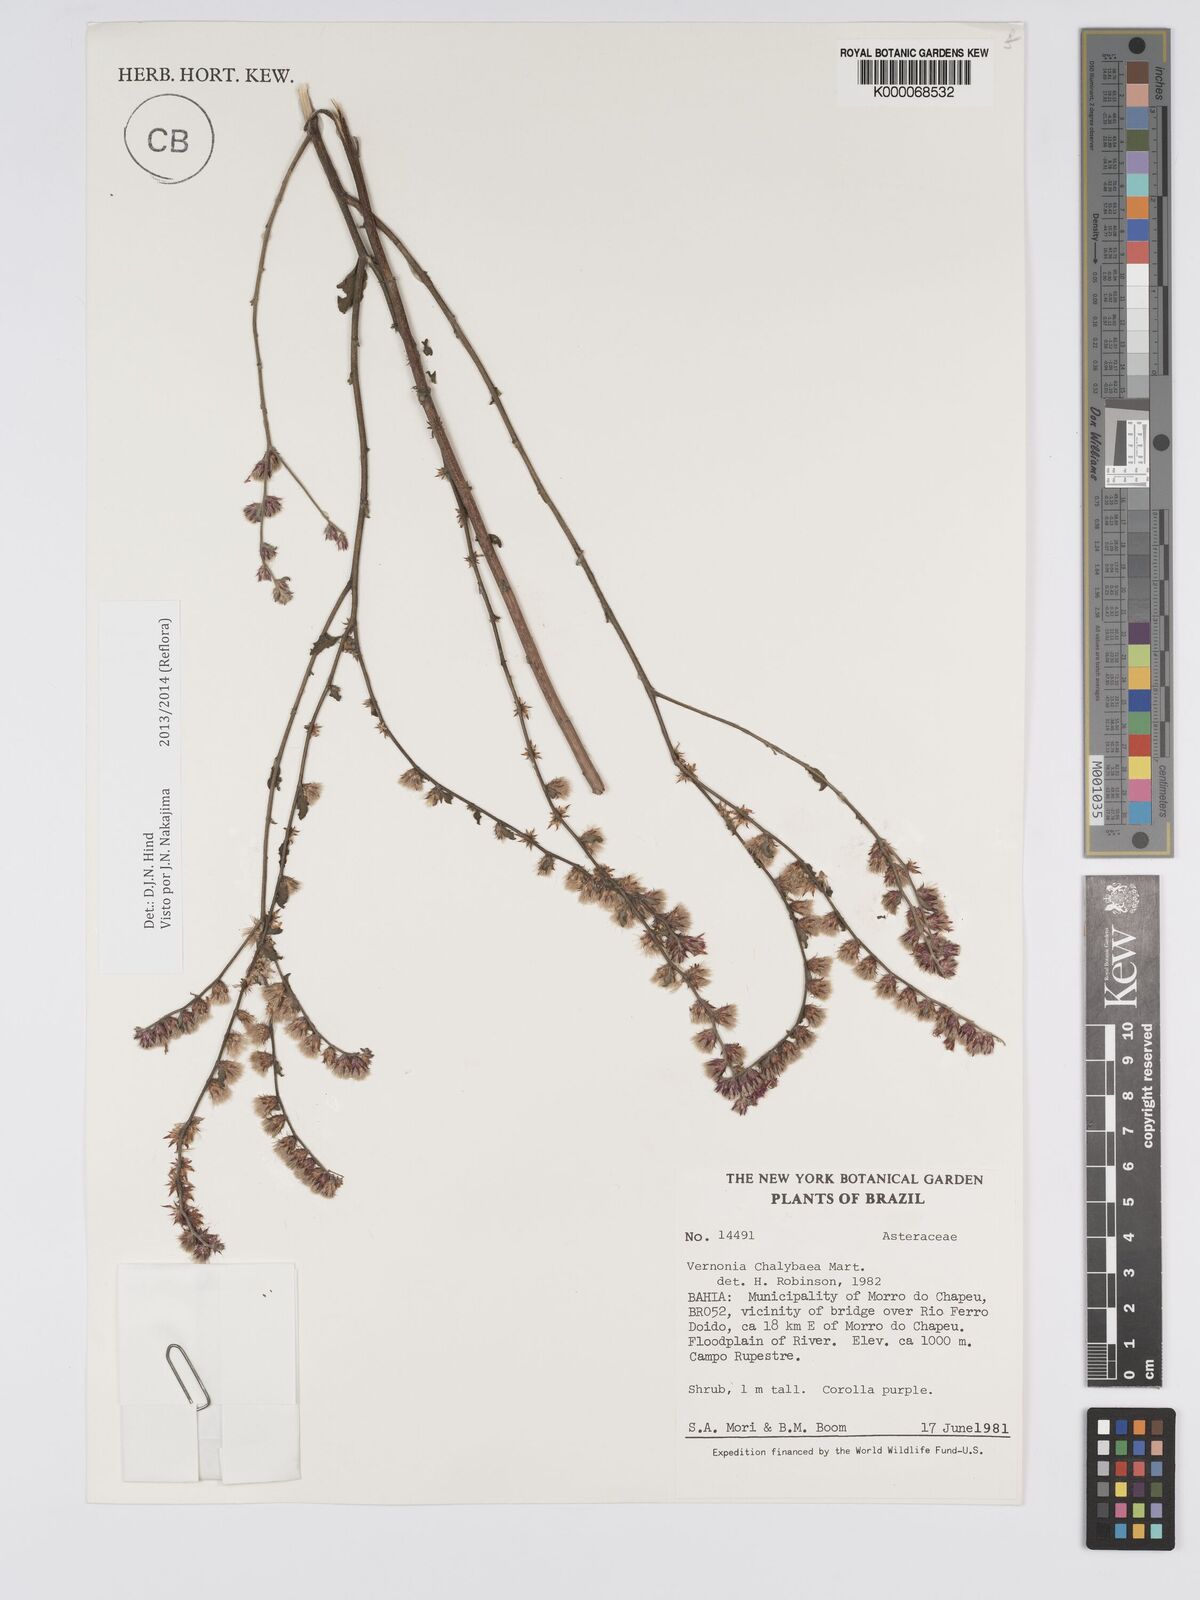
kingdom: Plantae
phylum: Tracheophyta
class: Magnoliopsida
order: Asterales
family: Asteraceae
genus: Lepidaploa
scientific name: Lepidaploa chalybaea
